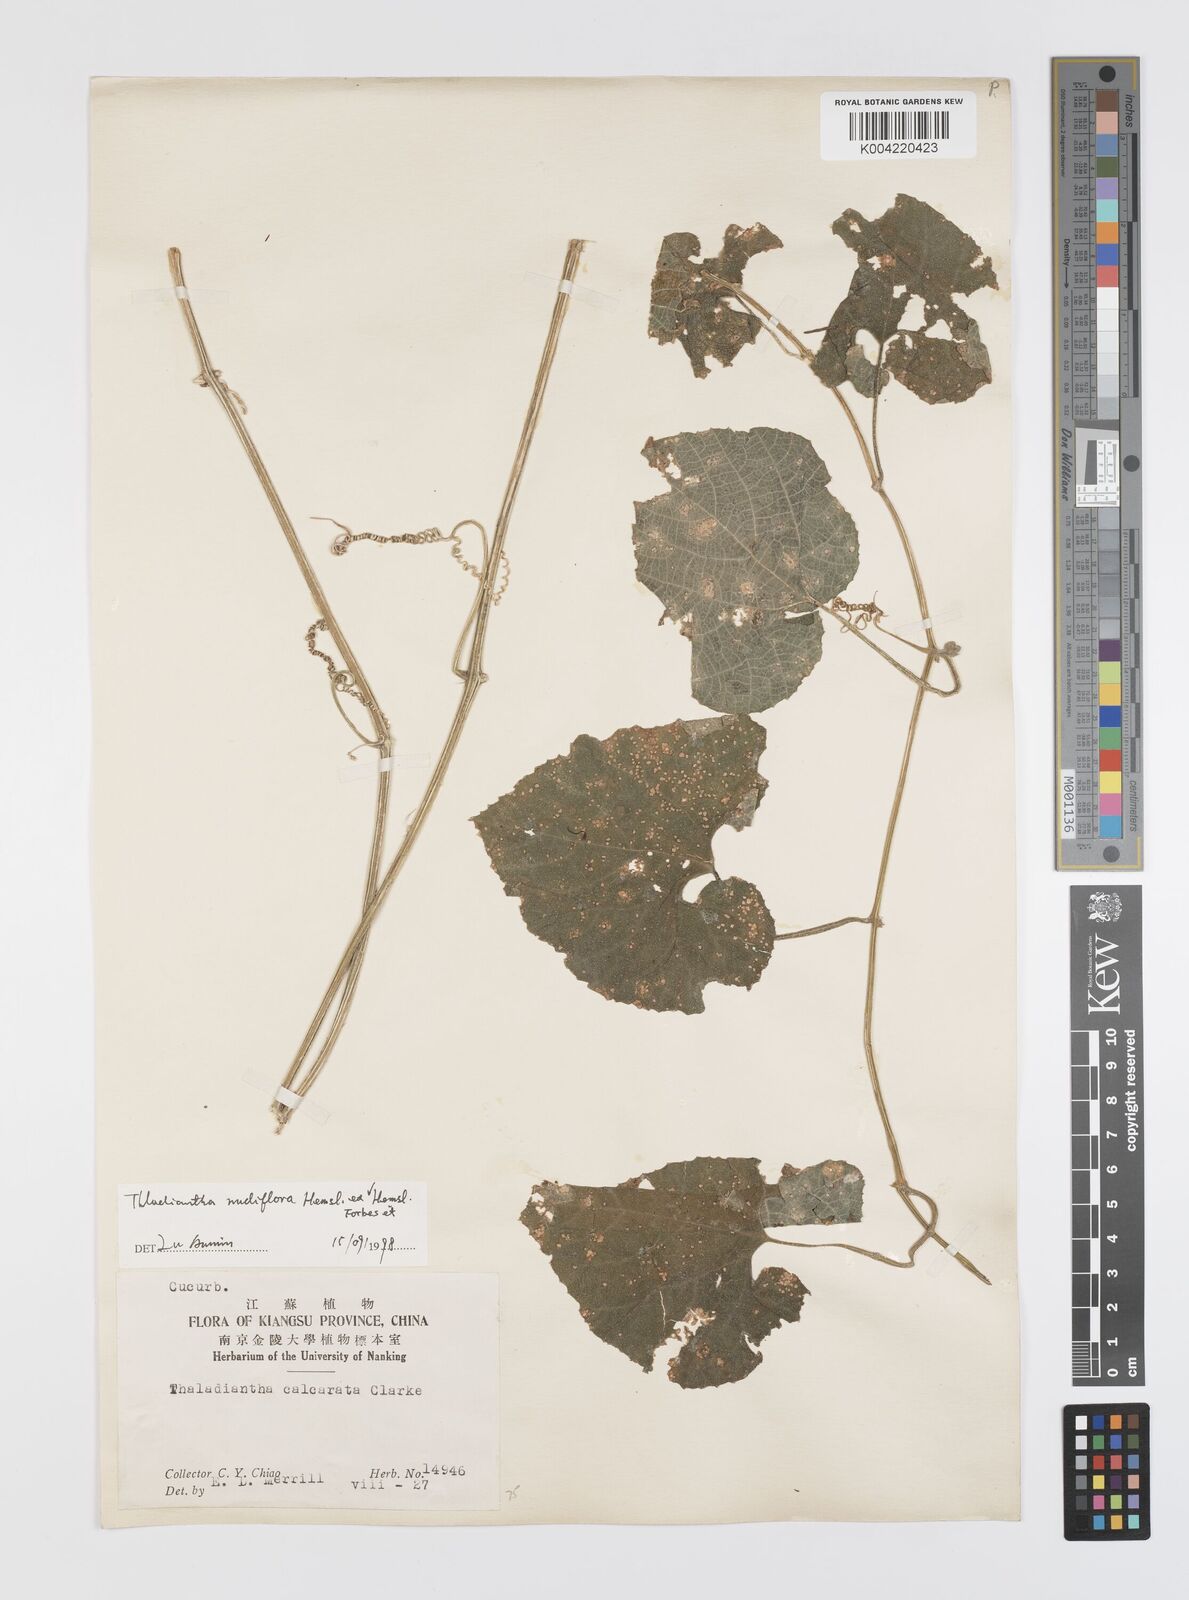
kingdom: Plantae
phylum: Tracheophyta
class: Magnoliopsida
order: Cucurbitales
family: Cucurbitaceae
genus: Thladiantha
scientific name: Thladiantha nudiflora
